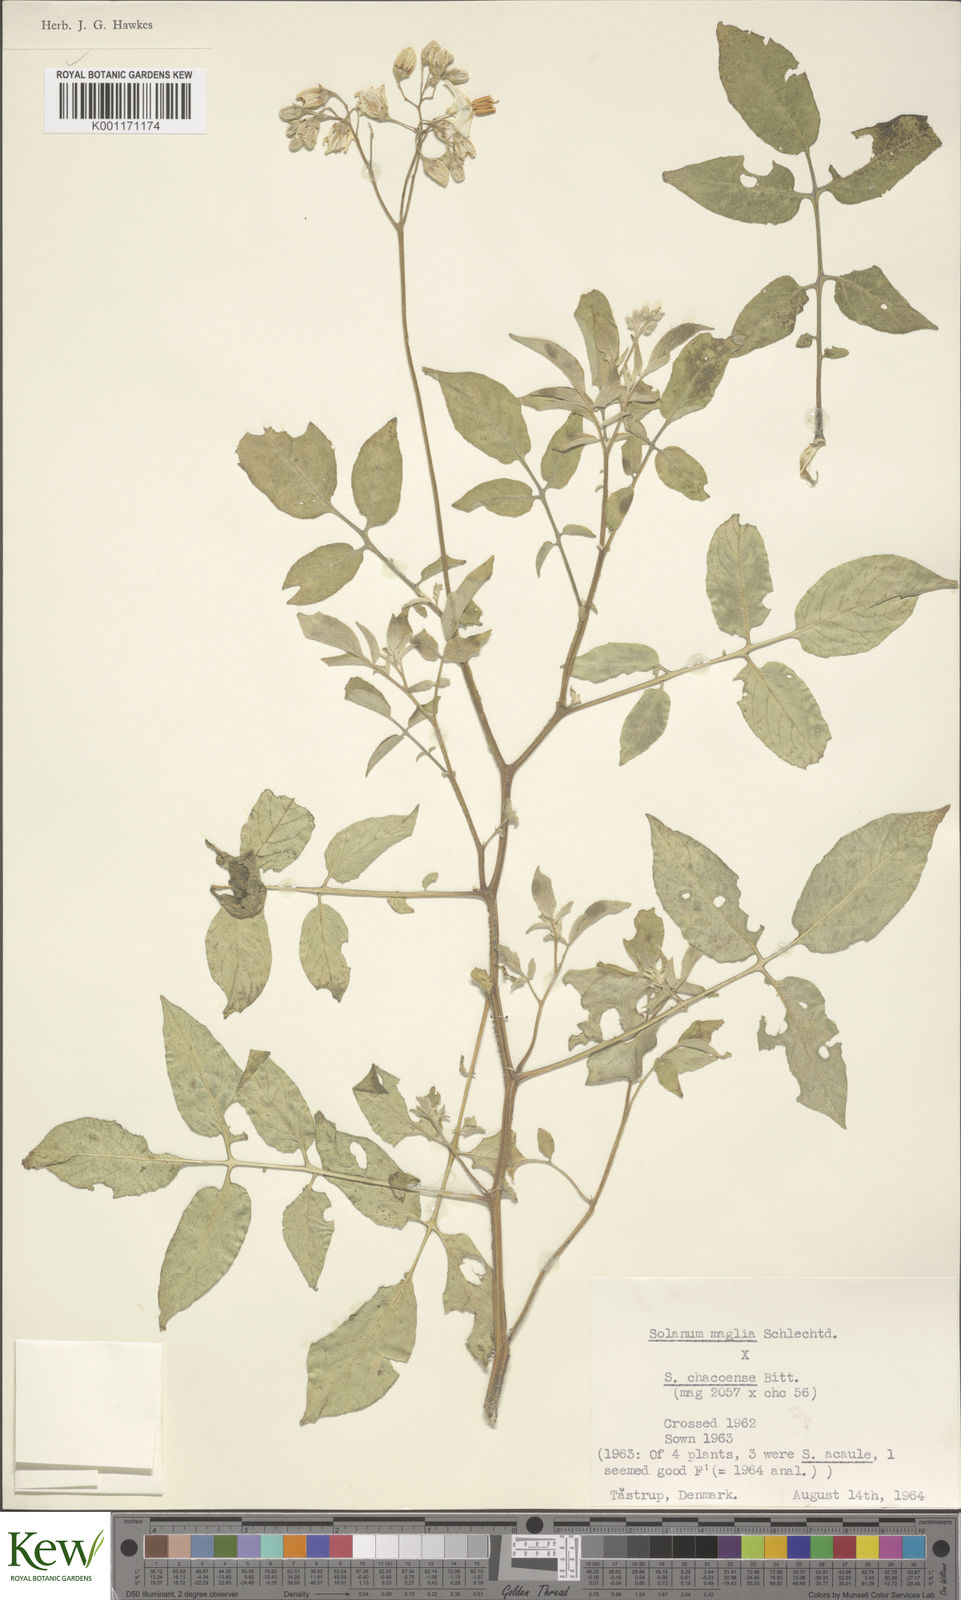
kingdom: Plantae
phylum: Tracheophyta
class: Magnoliopsida
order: Solanales
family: Solanaceae
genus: Solanum
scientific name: Solanum chacoense
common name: Chaco potato
